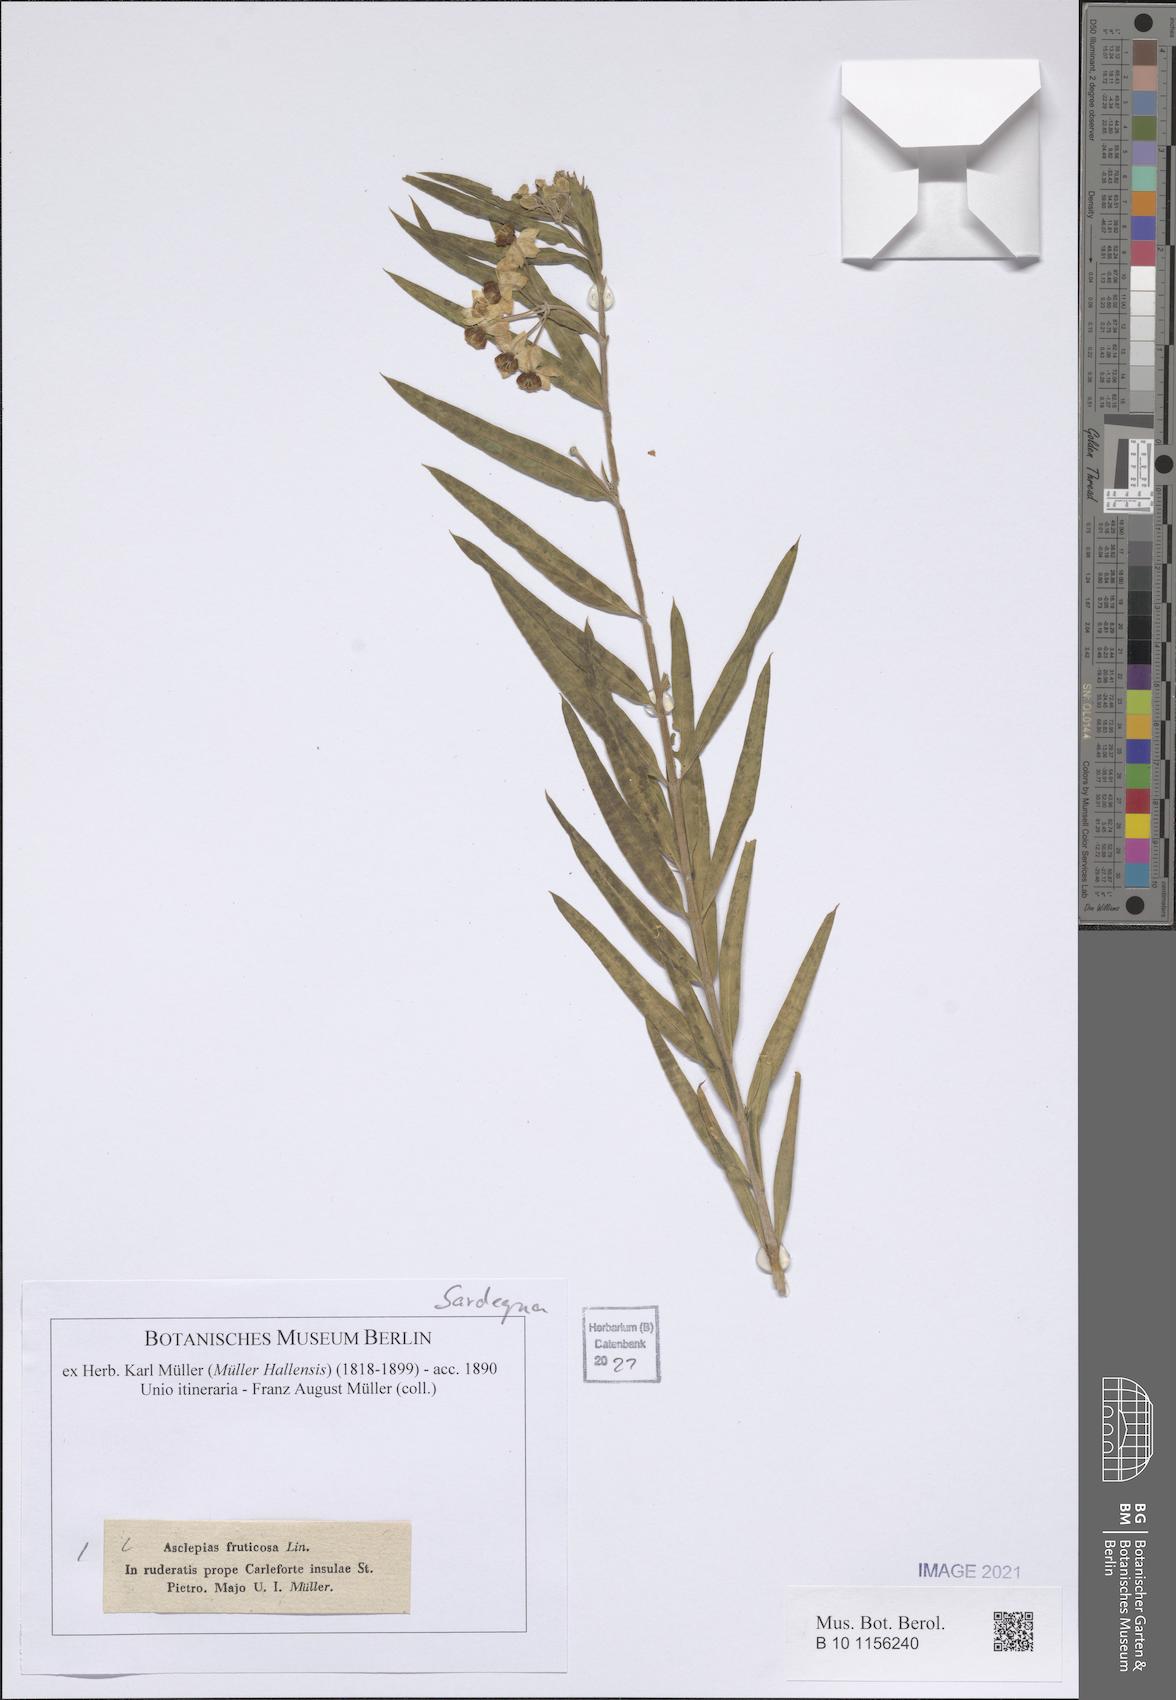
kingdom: Plantae
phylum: Tracheophyta
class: Magnoliopsida
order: Gentianales
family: Apocynaceae
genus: Gomphocarpus
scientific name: Gomphocarpus fruticosus
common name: Milkweed
